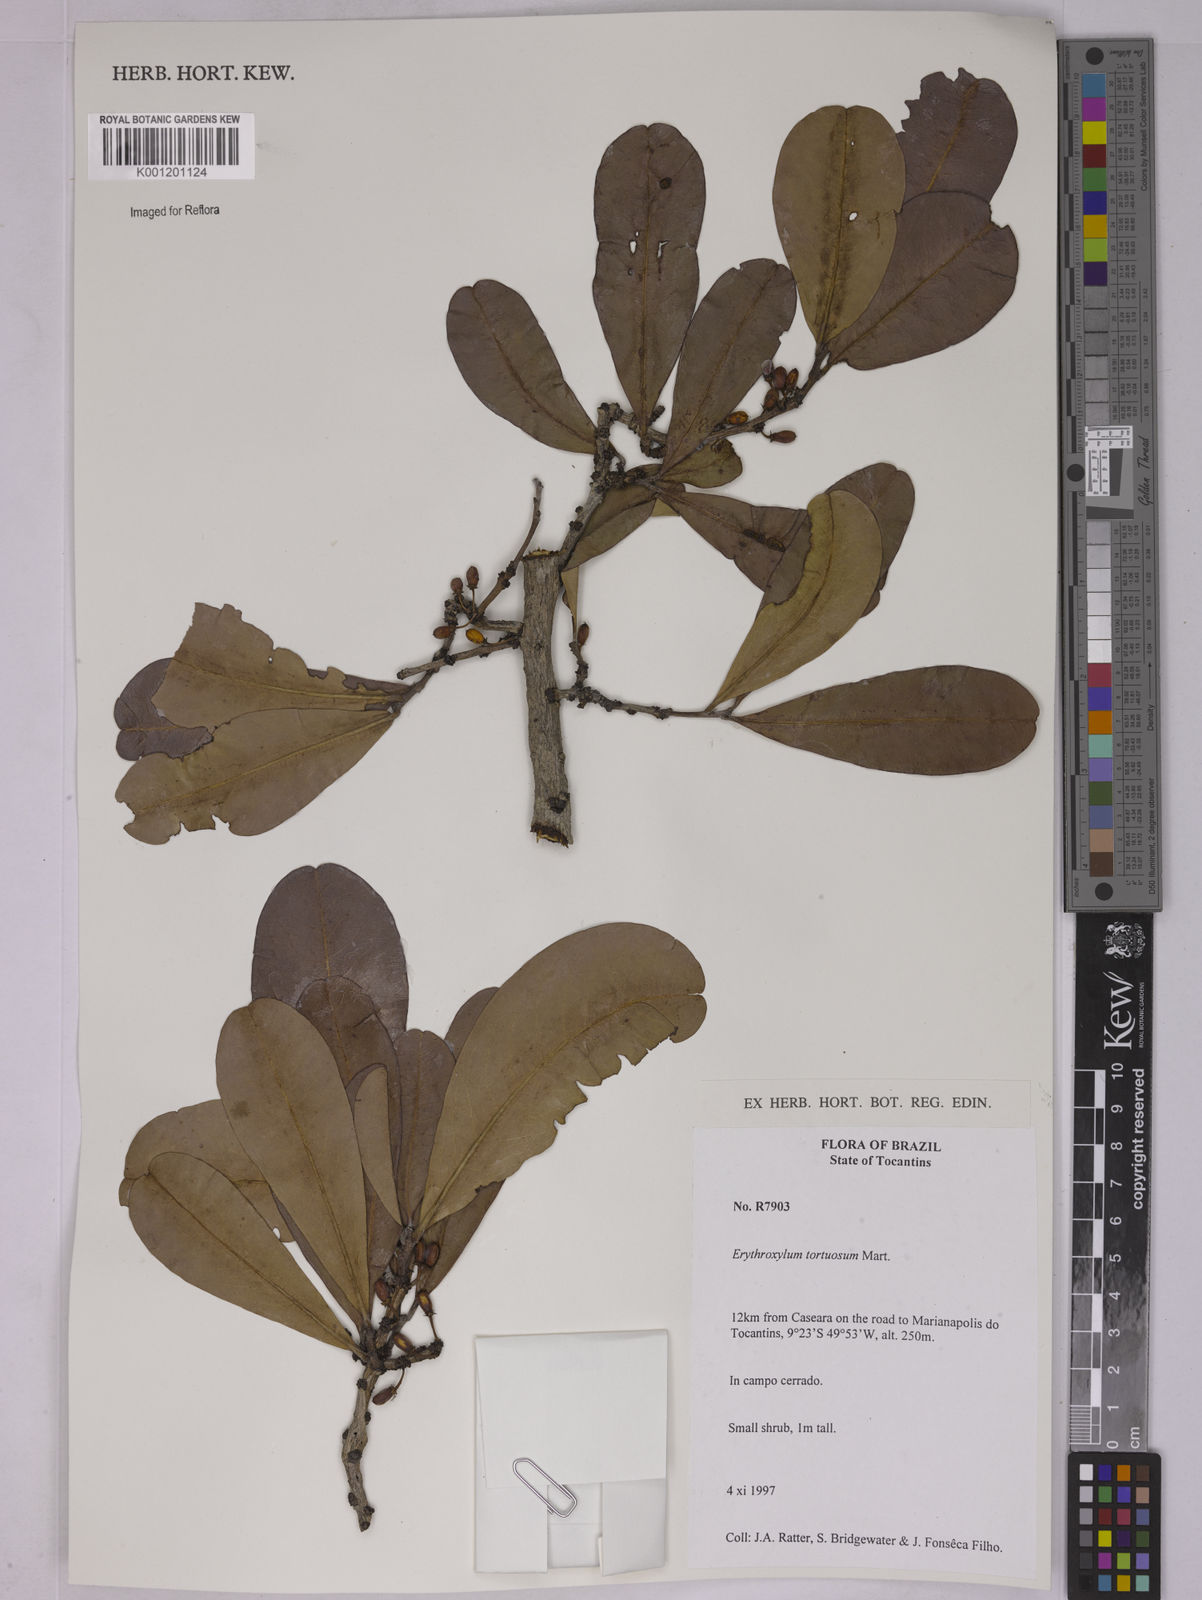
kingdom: Plantae
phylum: Tracheophyta
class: Magnoliopsida
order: Malpighiales
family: Erythroxylaceae
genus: Erythroxylum
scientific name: Erythroxylum tortuosum
